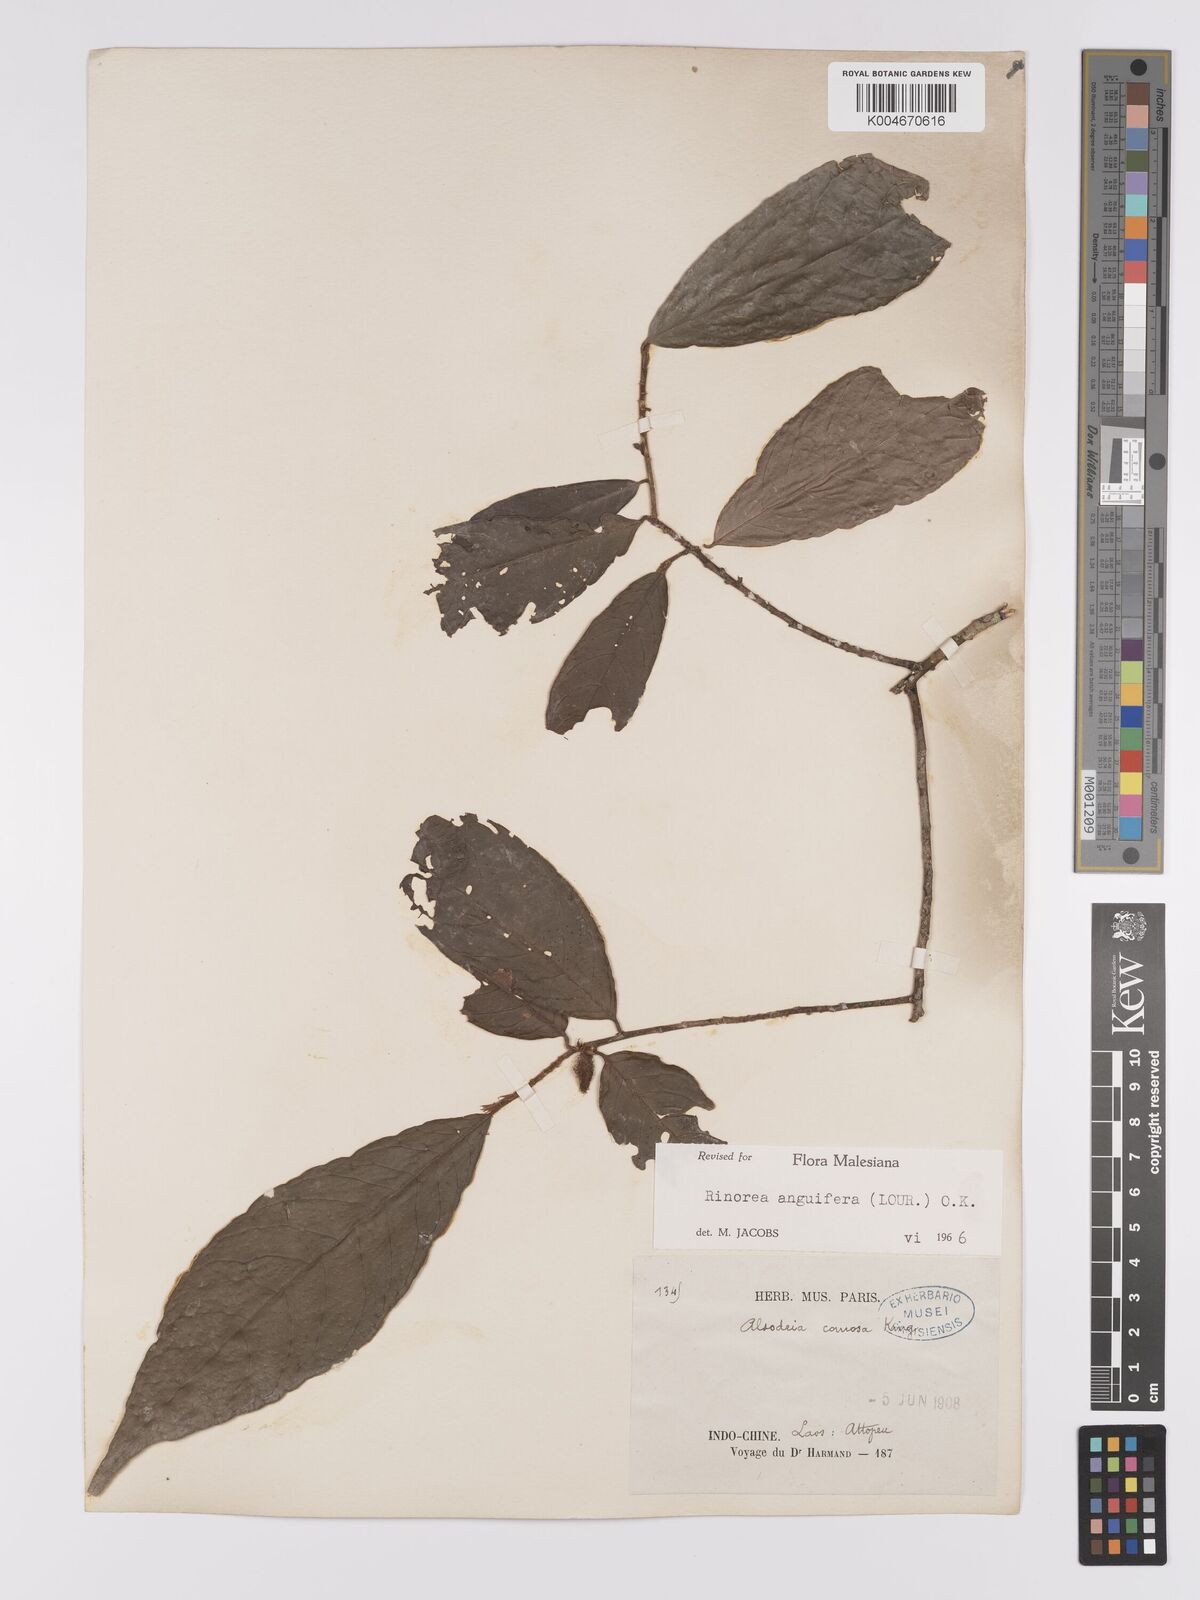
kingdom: Plantae
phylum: Tracheophyta
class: Magnoliopsida
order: Malpighiales
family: Violaceae
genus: Rinorea
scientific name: Rinorea anguifera
